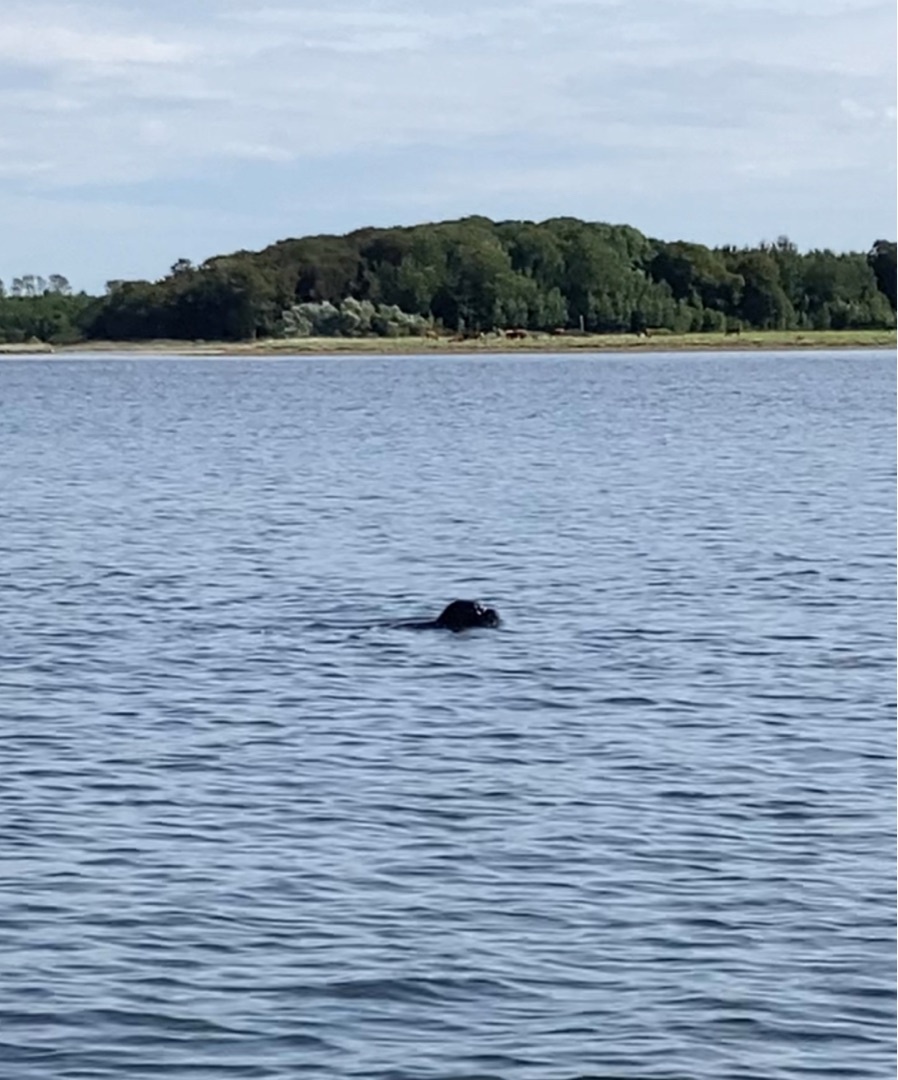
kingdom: Animalia
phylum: Chordata
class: Mammalia
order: Carnivora
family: Phocidae
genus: Phoca
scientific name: Phoca vitulina
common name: Spættet sæl
